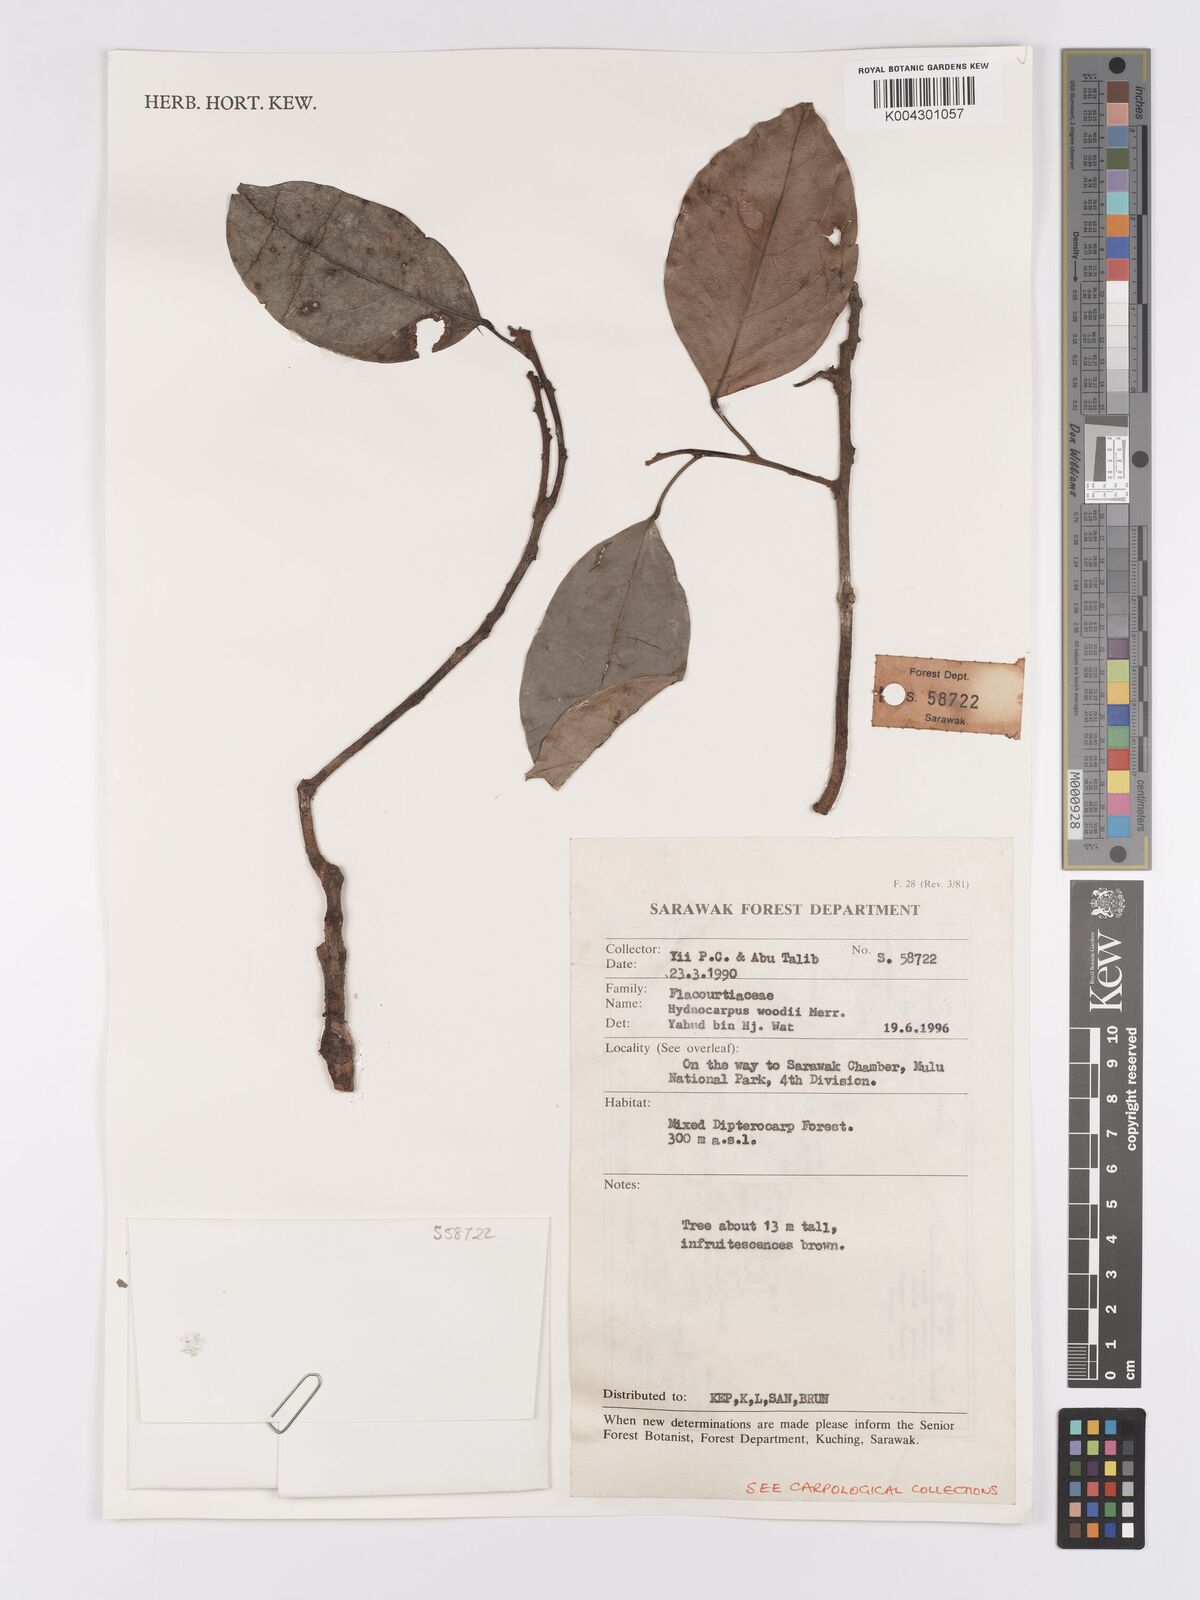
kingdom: Plantae
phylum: Tracheophyta
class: Magnoliopsida
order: Malpighiales
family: Achariaceae
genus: Hydnocarpus
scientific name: Hydnocarpus woodii
